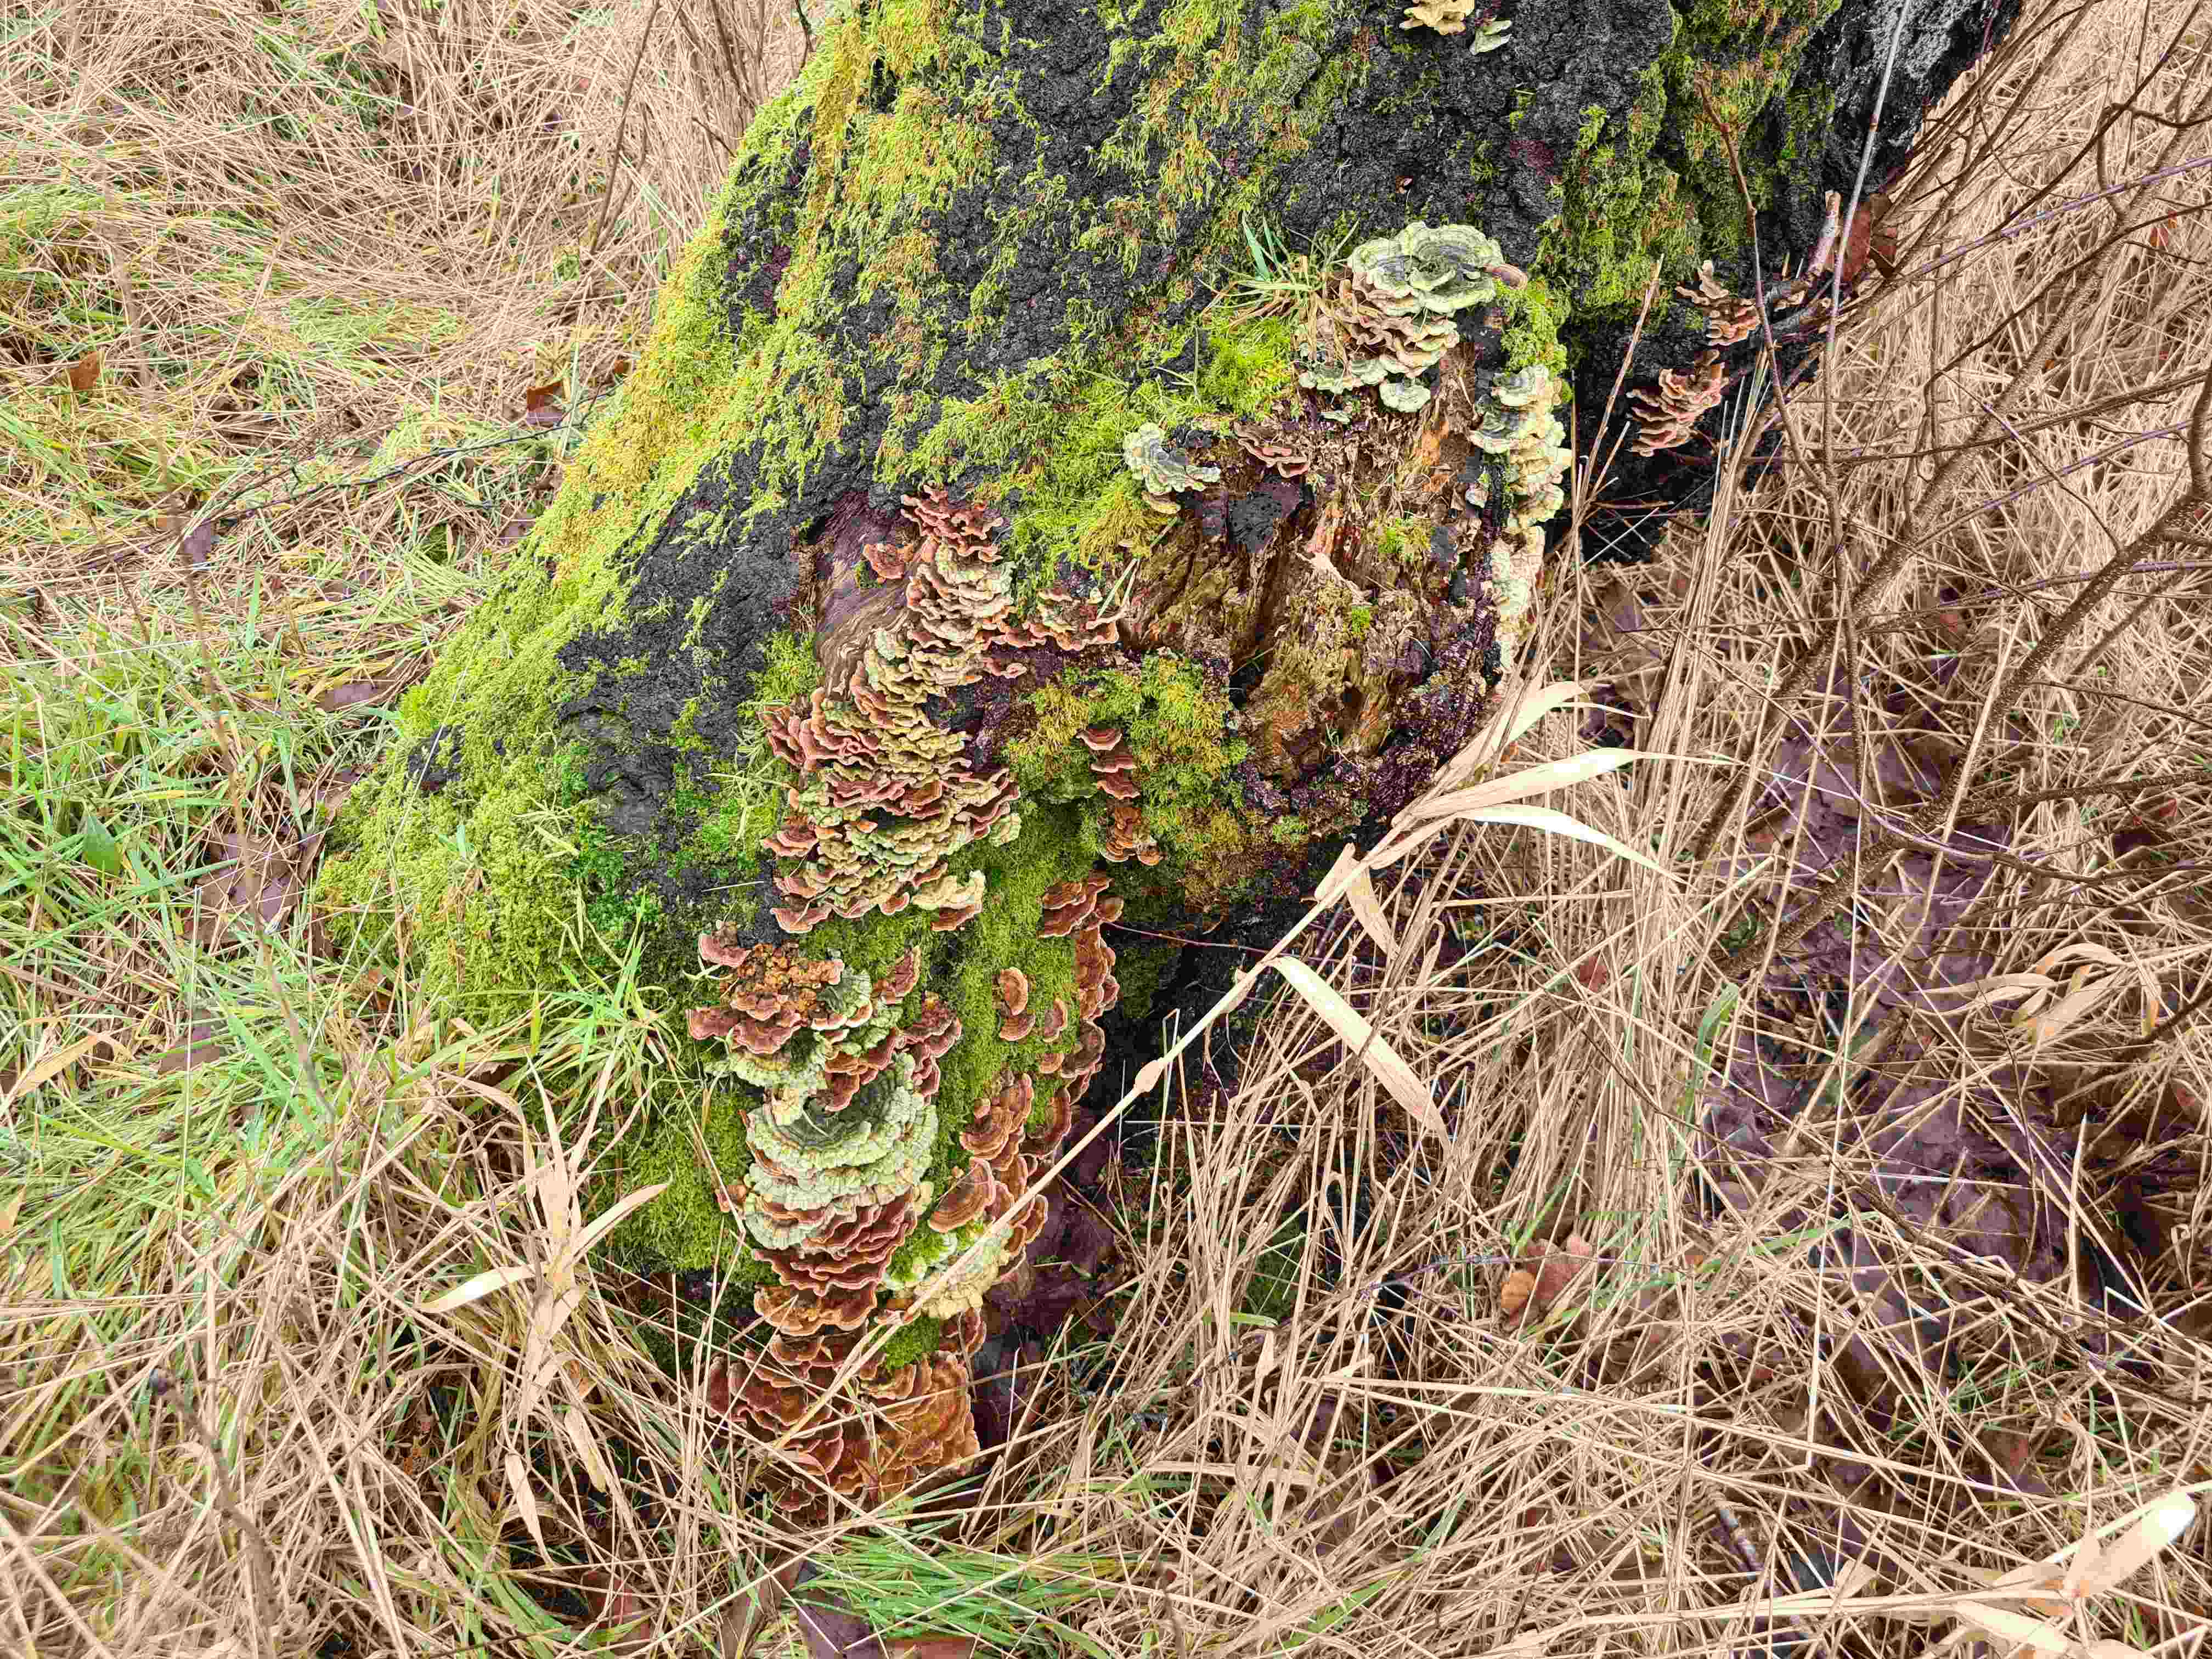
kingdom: Fungi
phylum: Basidiomycota
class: Agaricomycetes
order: Polyporales
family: Polyporaceae
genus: Trametes
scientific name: Trametes versicolor
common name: broget læderporesvamp
